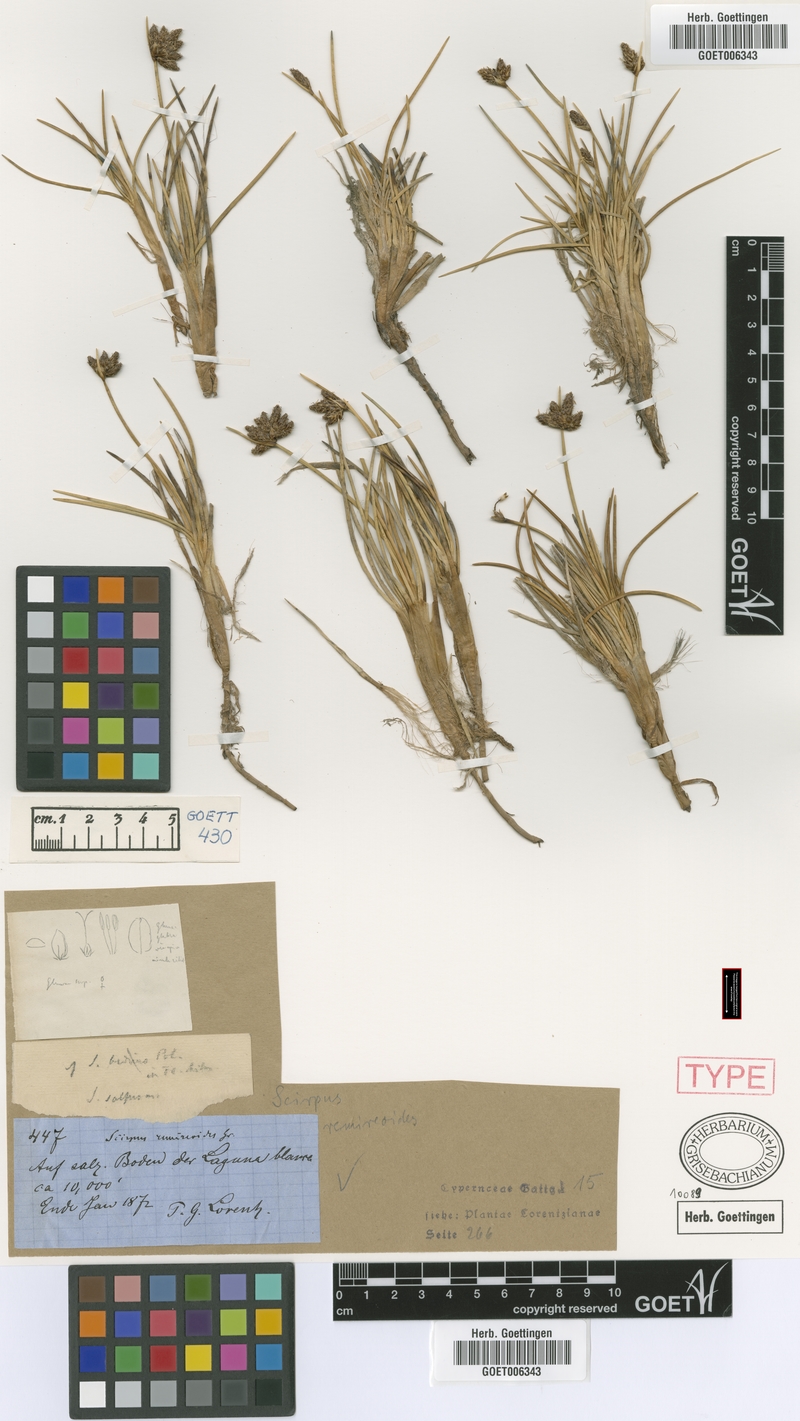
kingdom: Plantae
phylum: Tracheophyta
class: Liliopsida
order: Poales
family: Cyperaceae
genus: Amphiscirpus
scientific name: Amphiscirpus nevadensis
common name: Nevada bulrush
